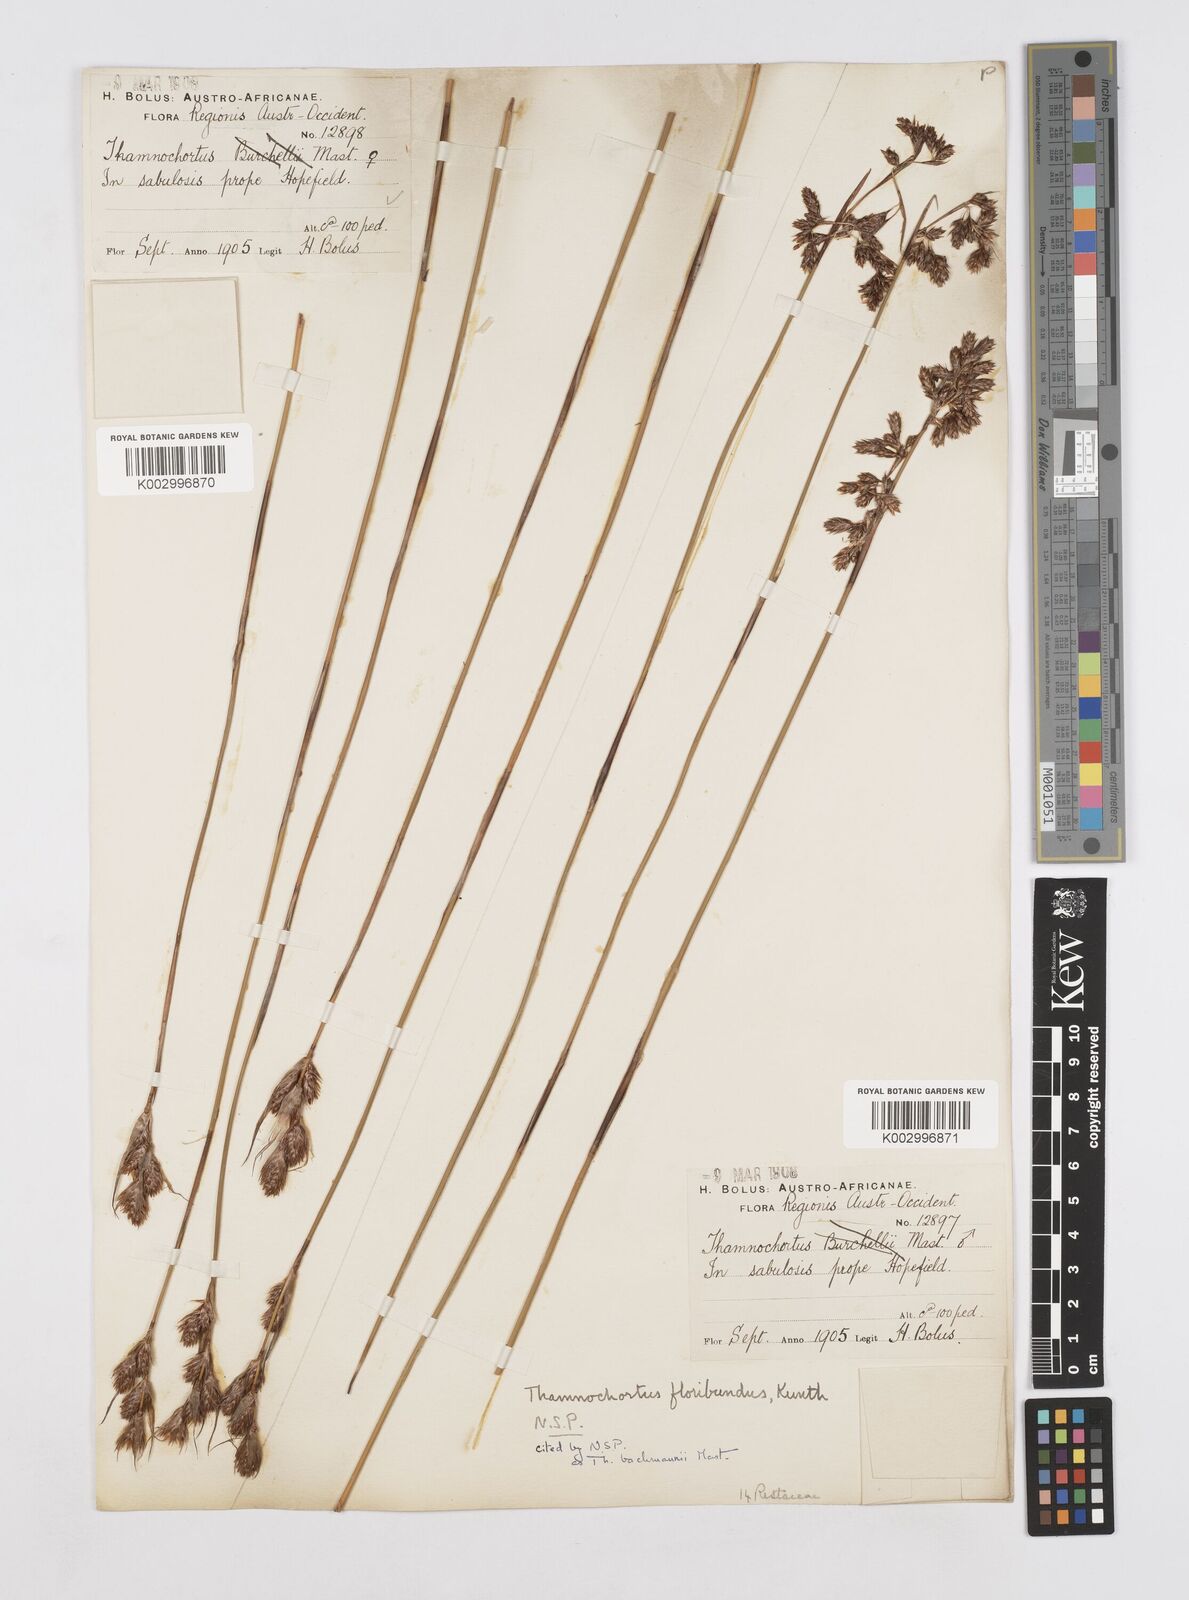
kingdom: Plantae
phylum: Tracheophyta
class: Liliopsida
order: Poales
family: Restionaceae
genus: Thamnochortus
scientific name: Thamnochortus bachmannii
